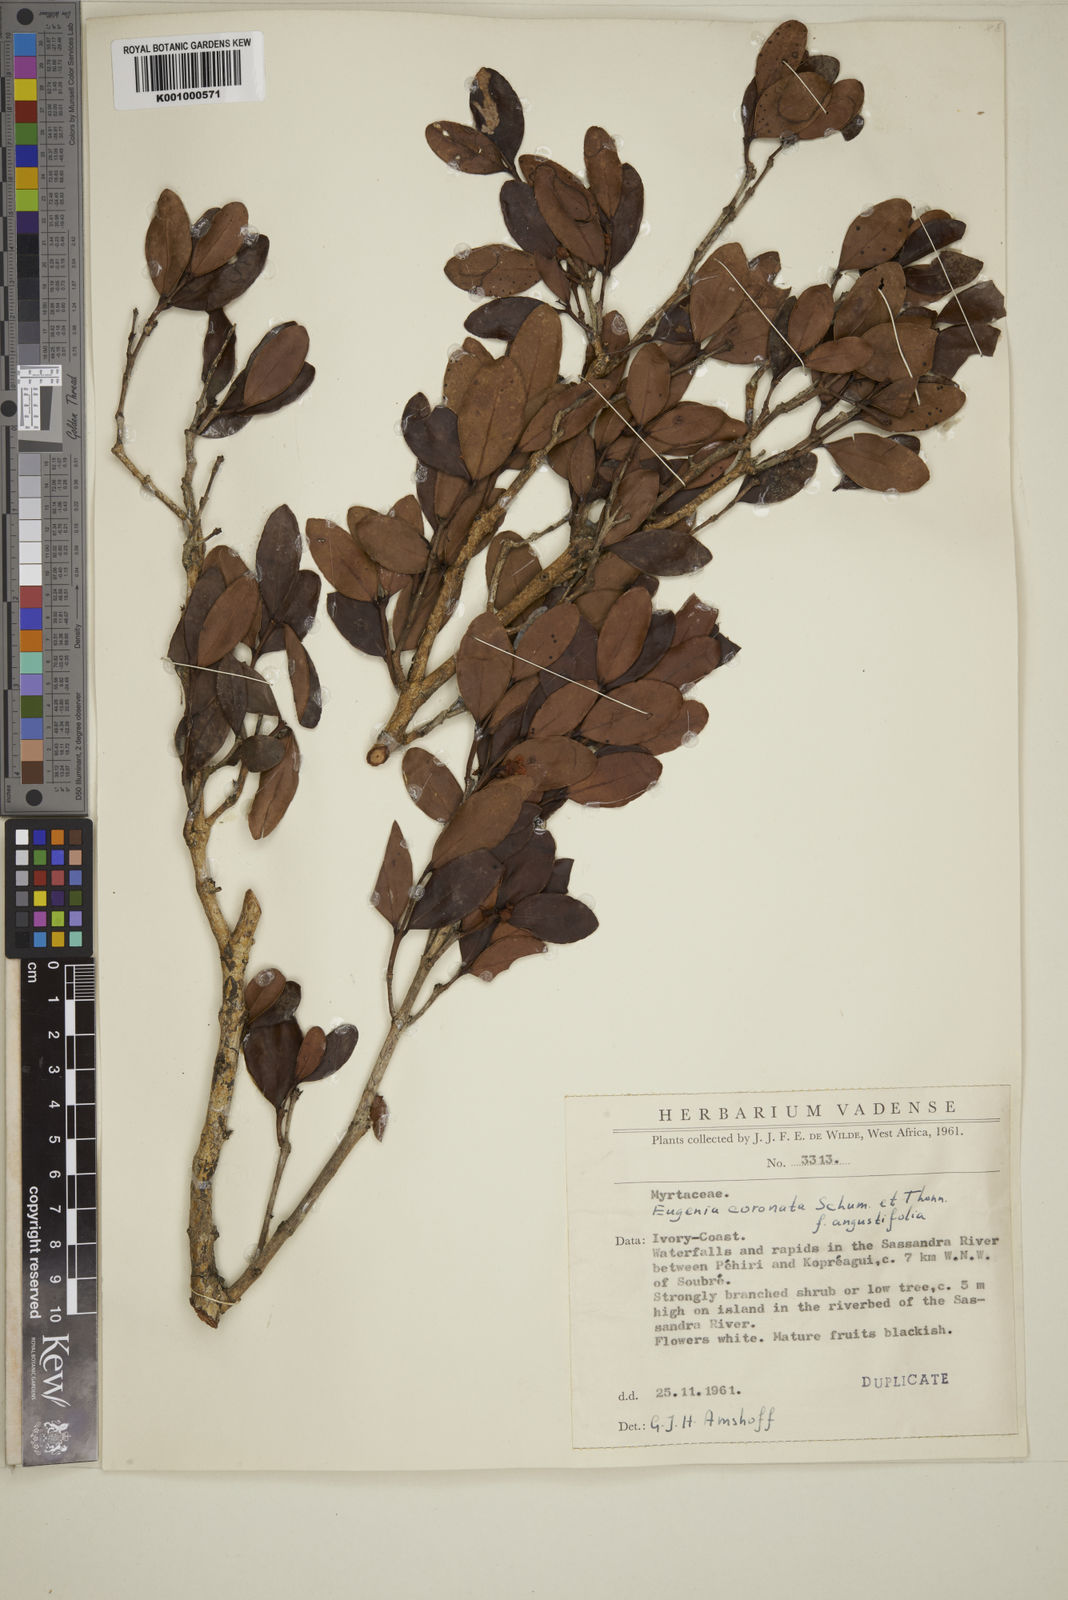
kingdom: Plantae
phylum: Tracheophyta
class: Magnoliopsida
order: Myrtales
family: Myrtaceae
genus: Eugenia
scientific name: Eugenia coronata
